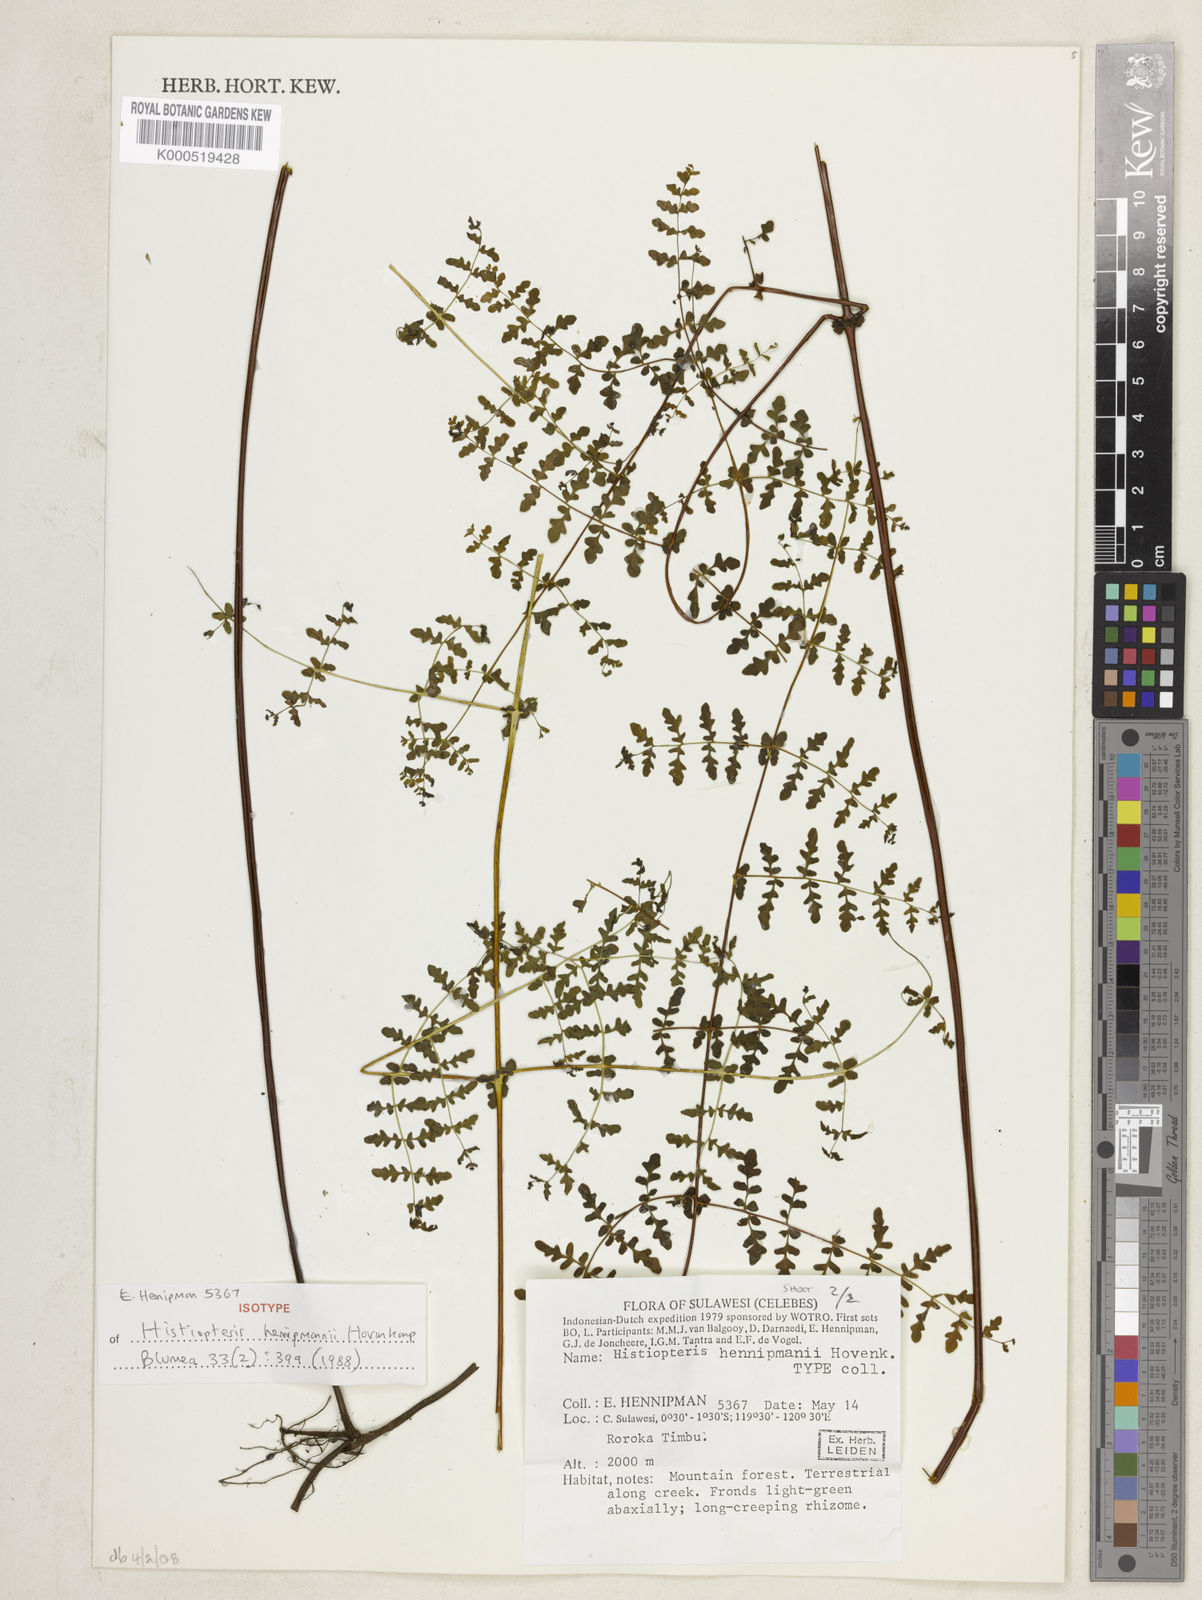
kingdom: Plantae
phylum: Tracheophyta
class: Polypodiopsida
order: Polypodiales
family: Dennstaedtiaceae
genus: Histiopteris
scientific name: Histiopteris hennipmanii
